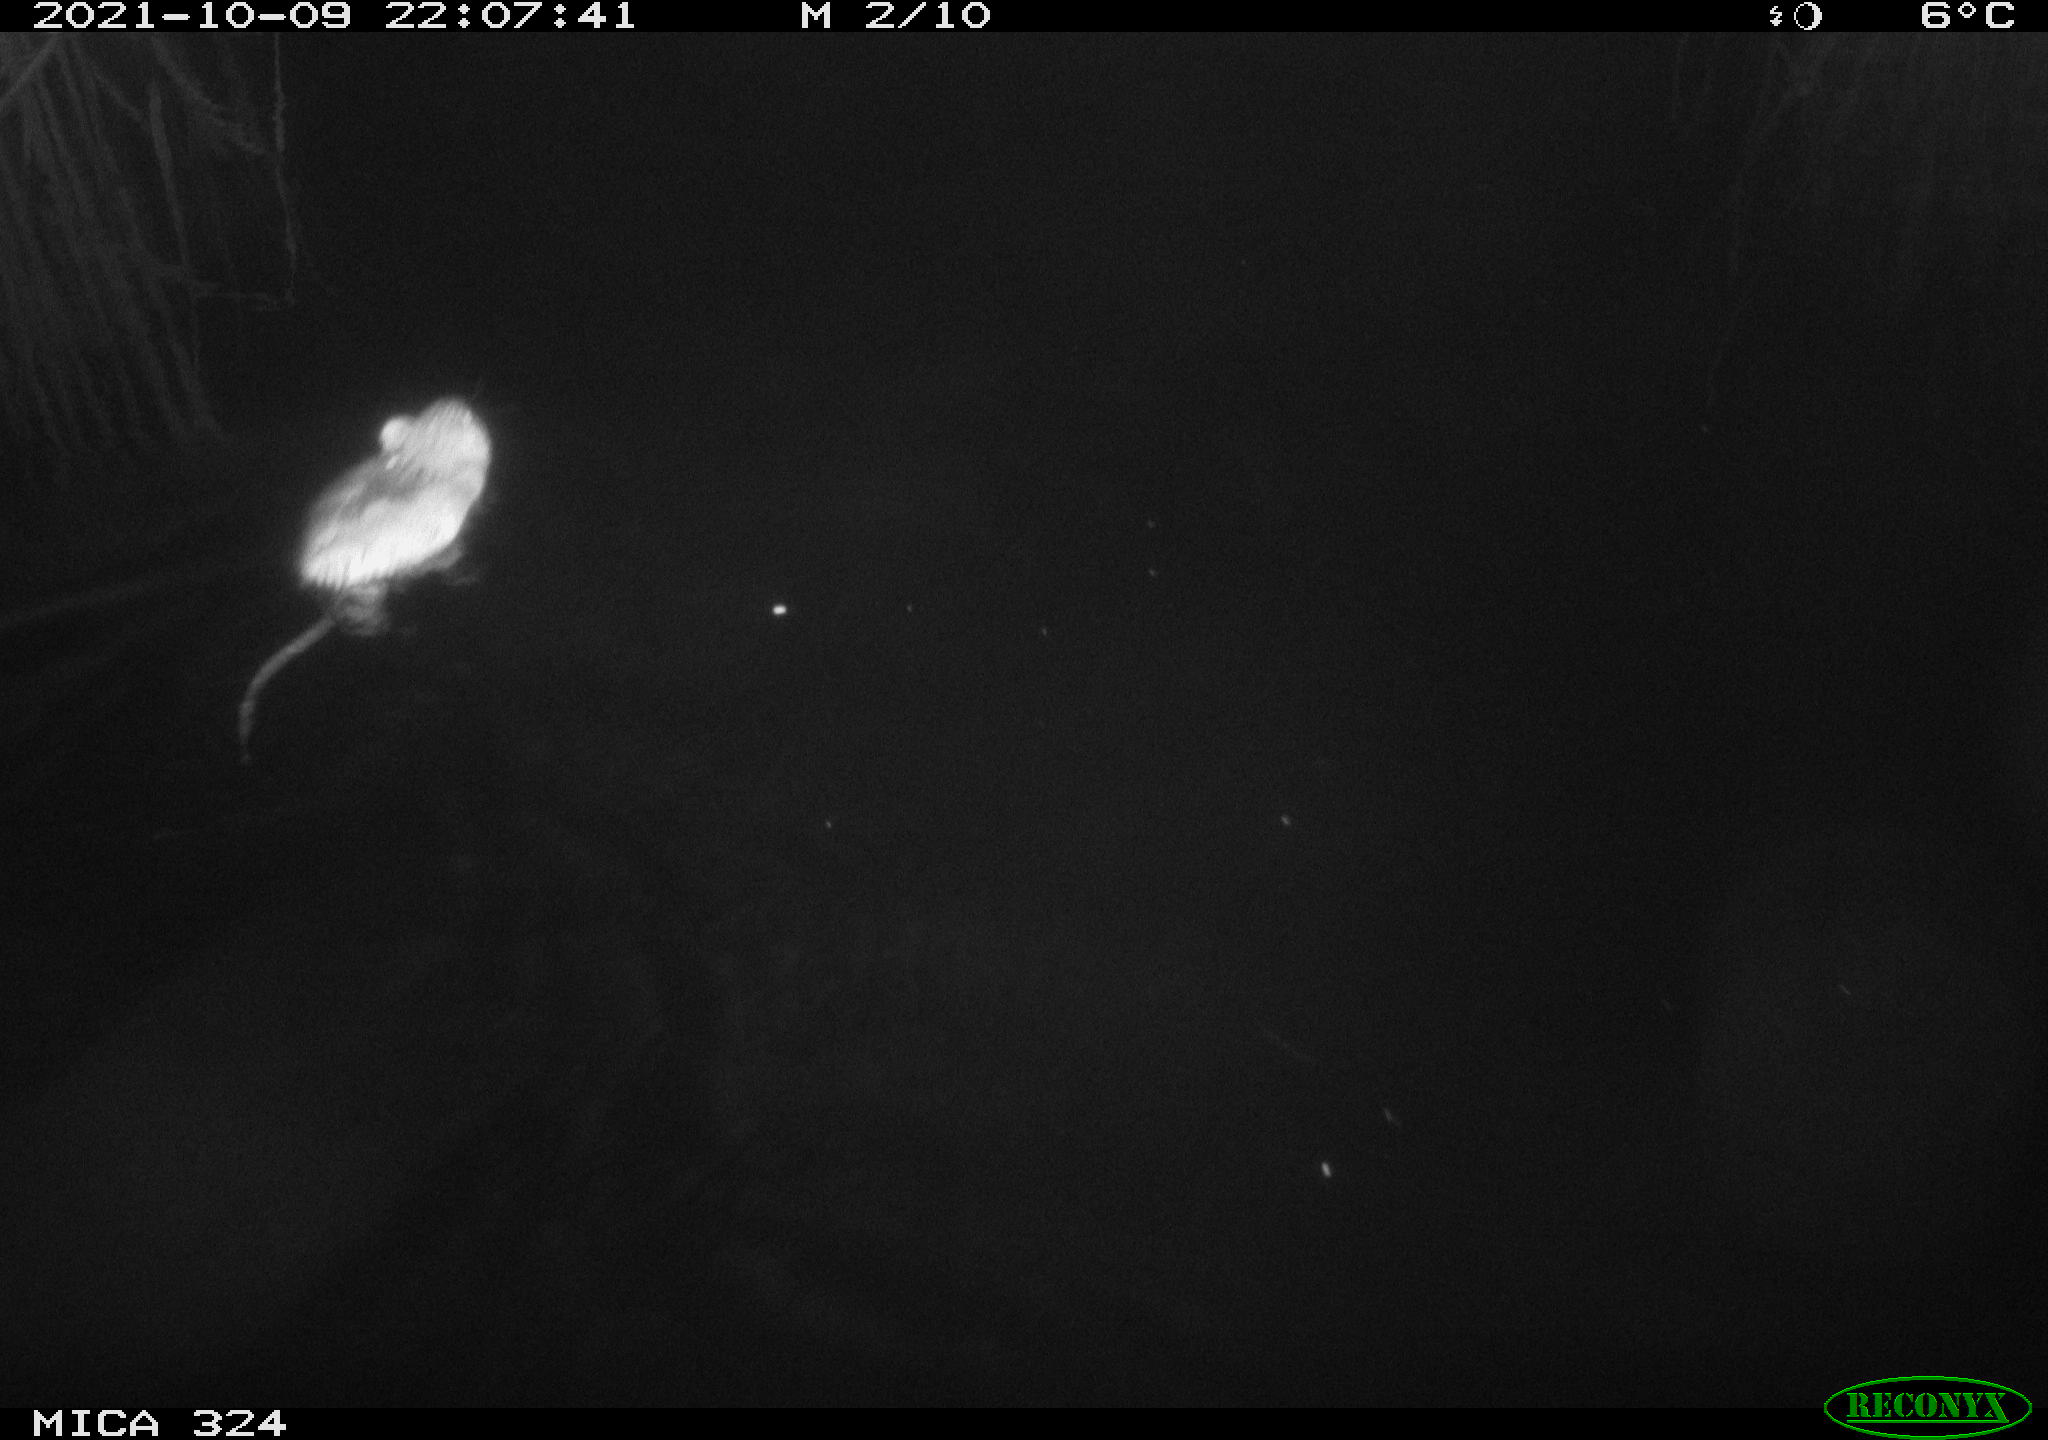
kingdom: Animalia
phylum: Chordata
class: Mammalia
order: Rodentia
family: Cricetidae
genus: Ondatra
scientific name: Ondatra zibethicus
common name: Muskrat
